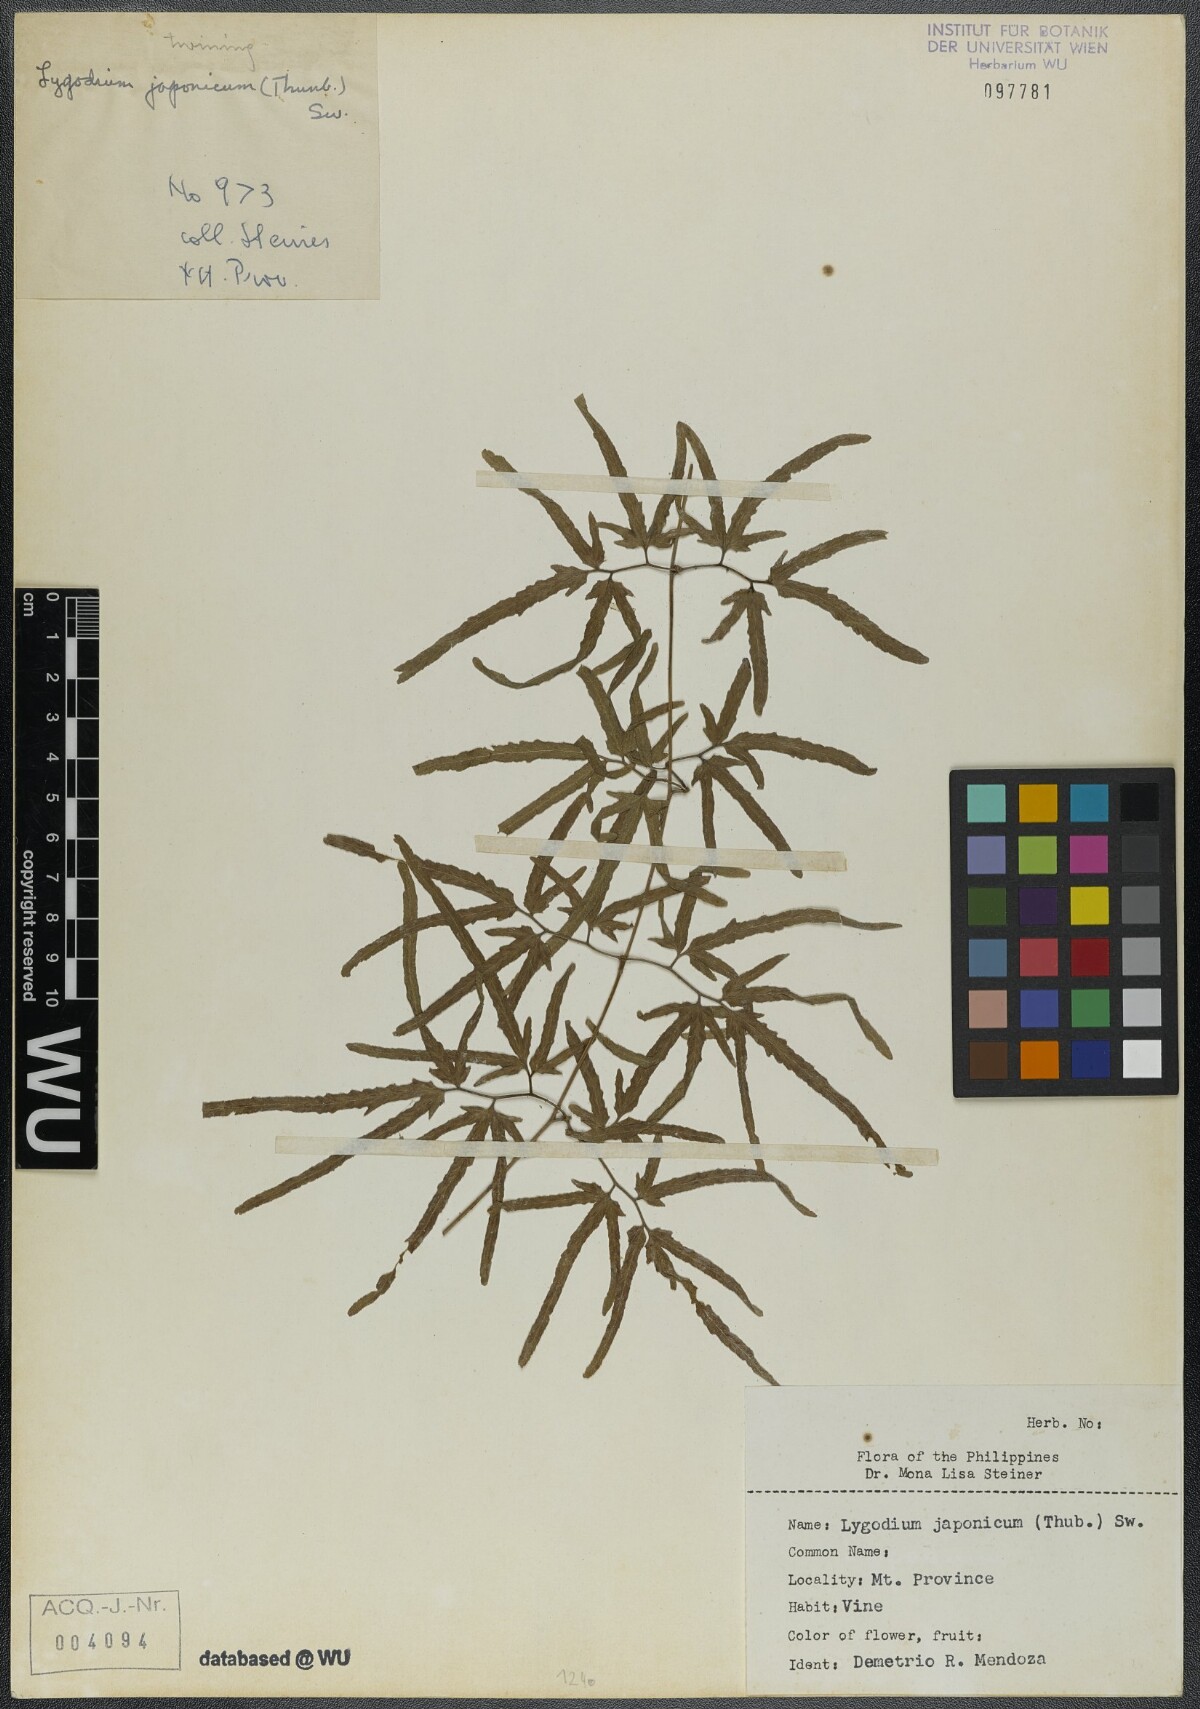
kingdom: Plantae
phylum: Tracheophyta
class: Polypodiopsida
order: Schizaeales
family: Lygodiaceae
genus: Lygodium
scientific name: Lygodium japonicum
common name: Japanese climbing fern
